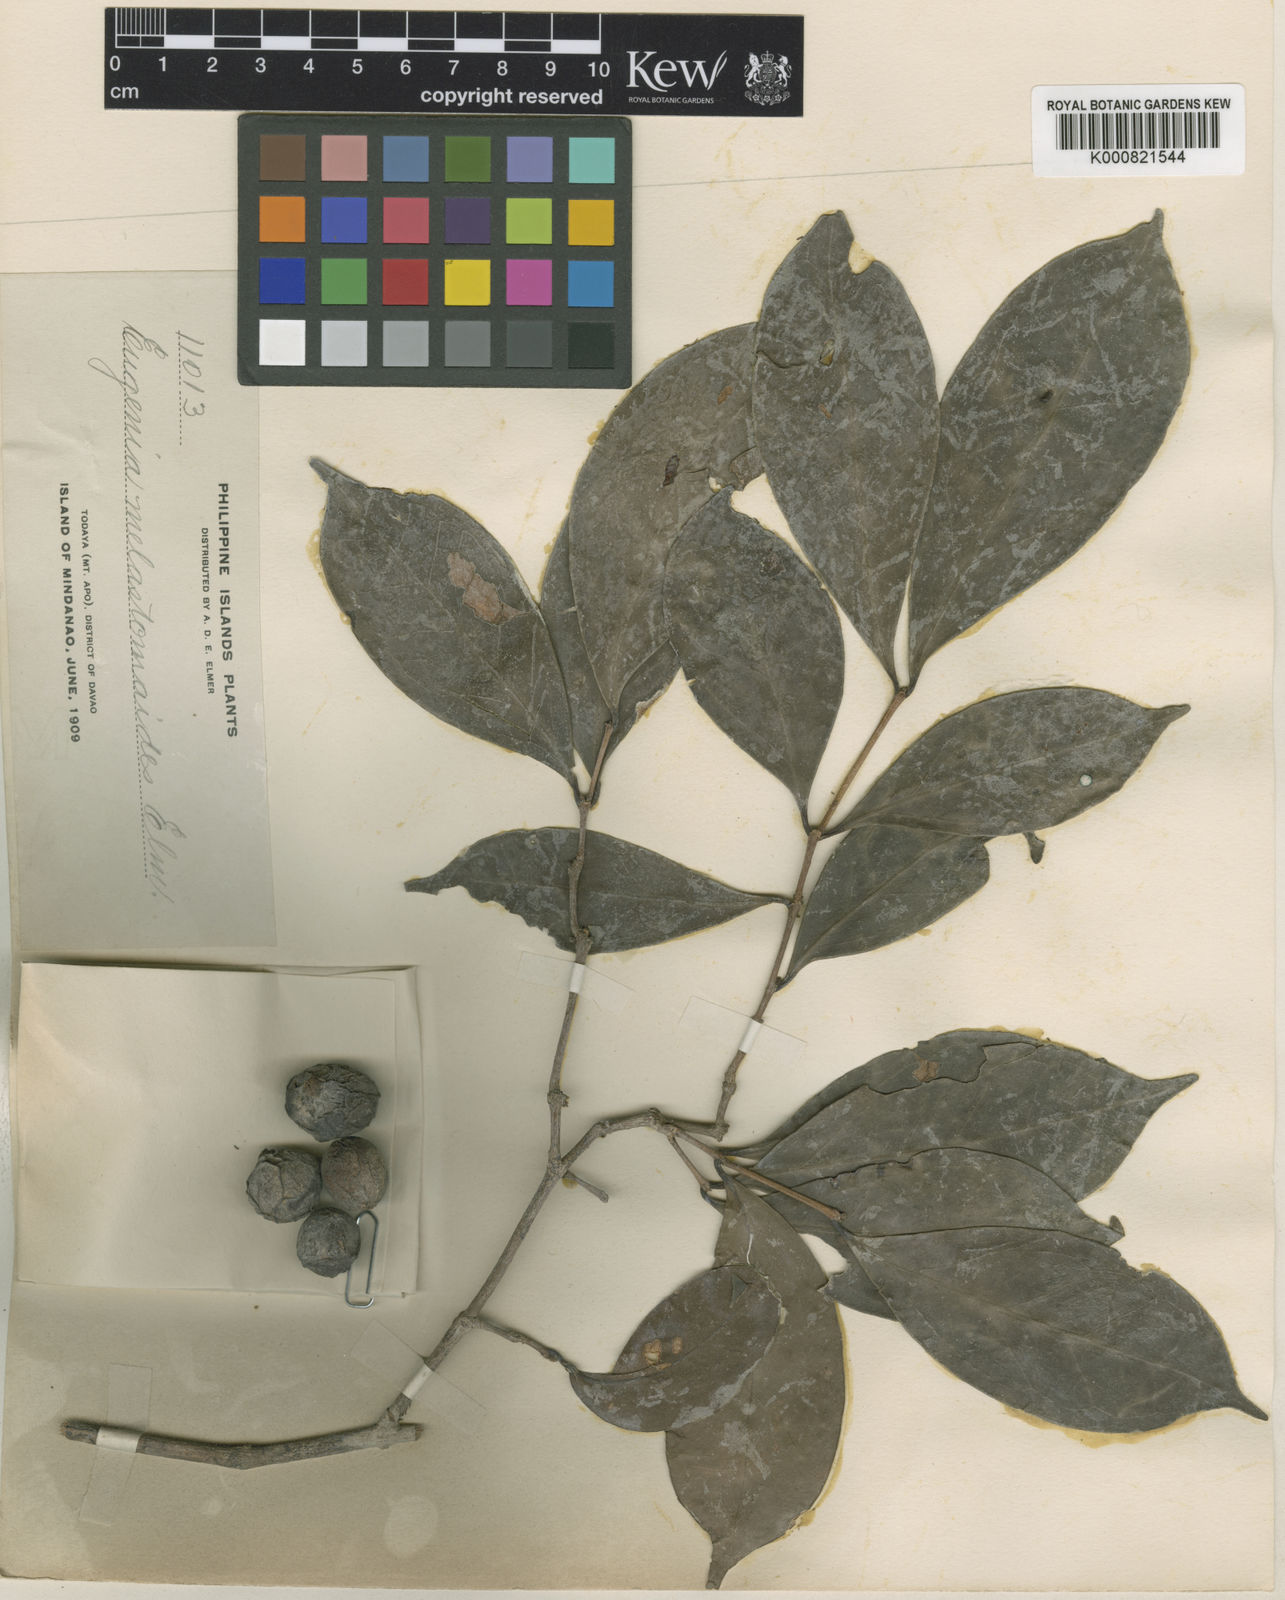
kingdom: Plantae
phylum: Tracheophyta
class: Magnoliopsida
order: Myrtales
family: Myrtaceae
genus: Eugenia
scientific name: Eugenia aherniana
